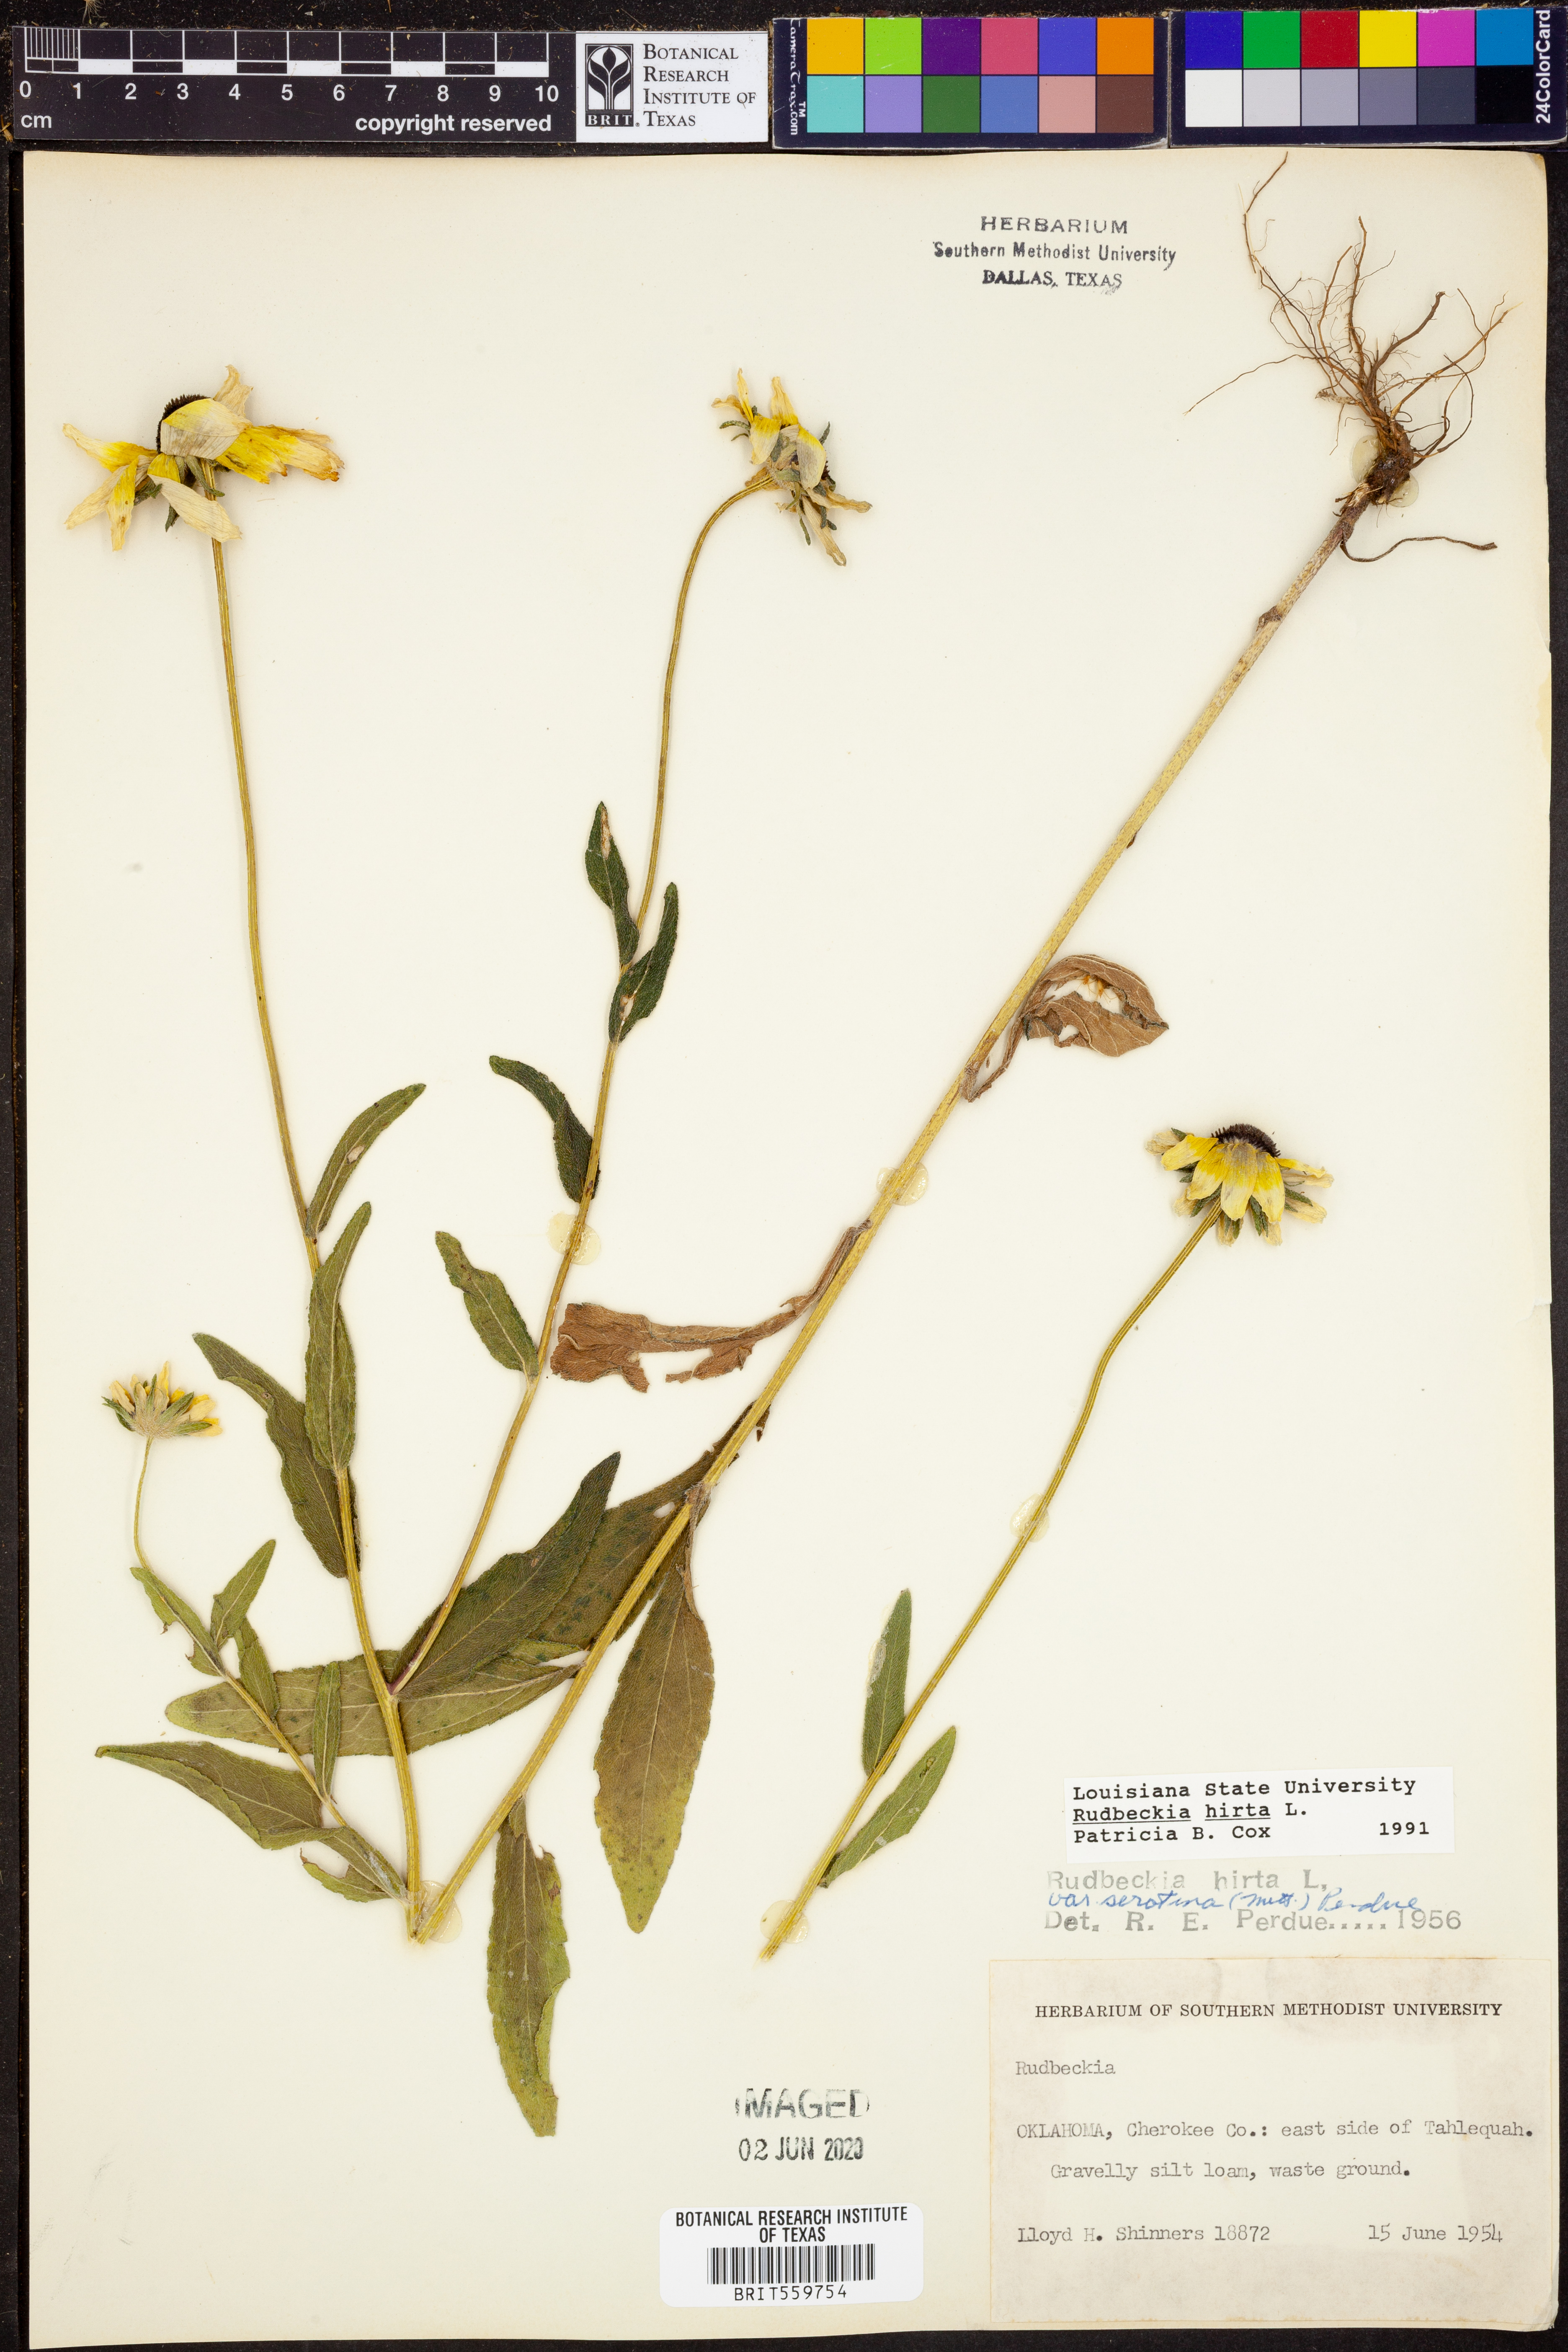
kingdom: Plantae
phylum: Tracheophyta
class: Magnoliopsida
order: Asterales
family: Asteraceae
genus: Rudbeckia
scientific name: Rudbeckia hirta
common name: Black-eyed-susan
